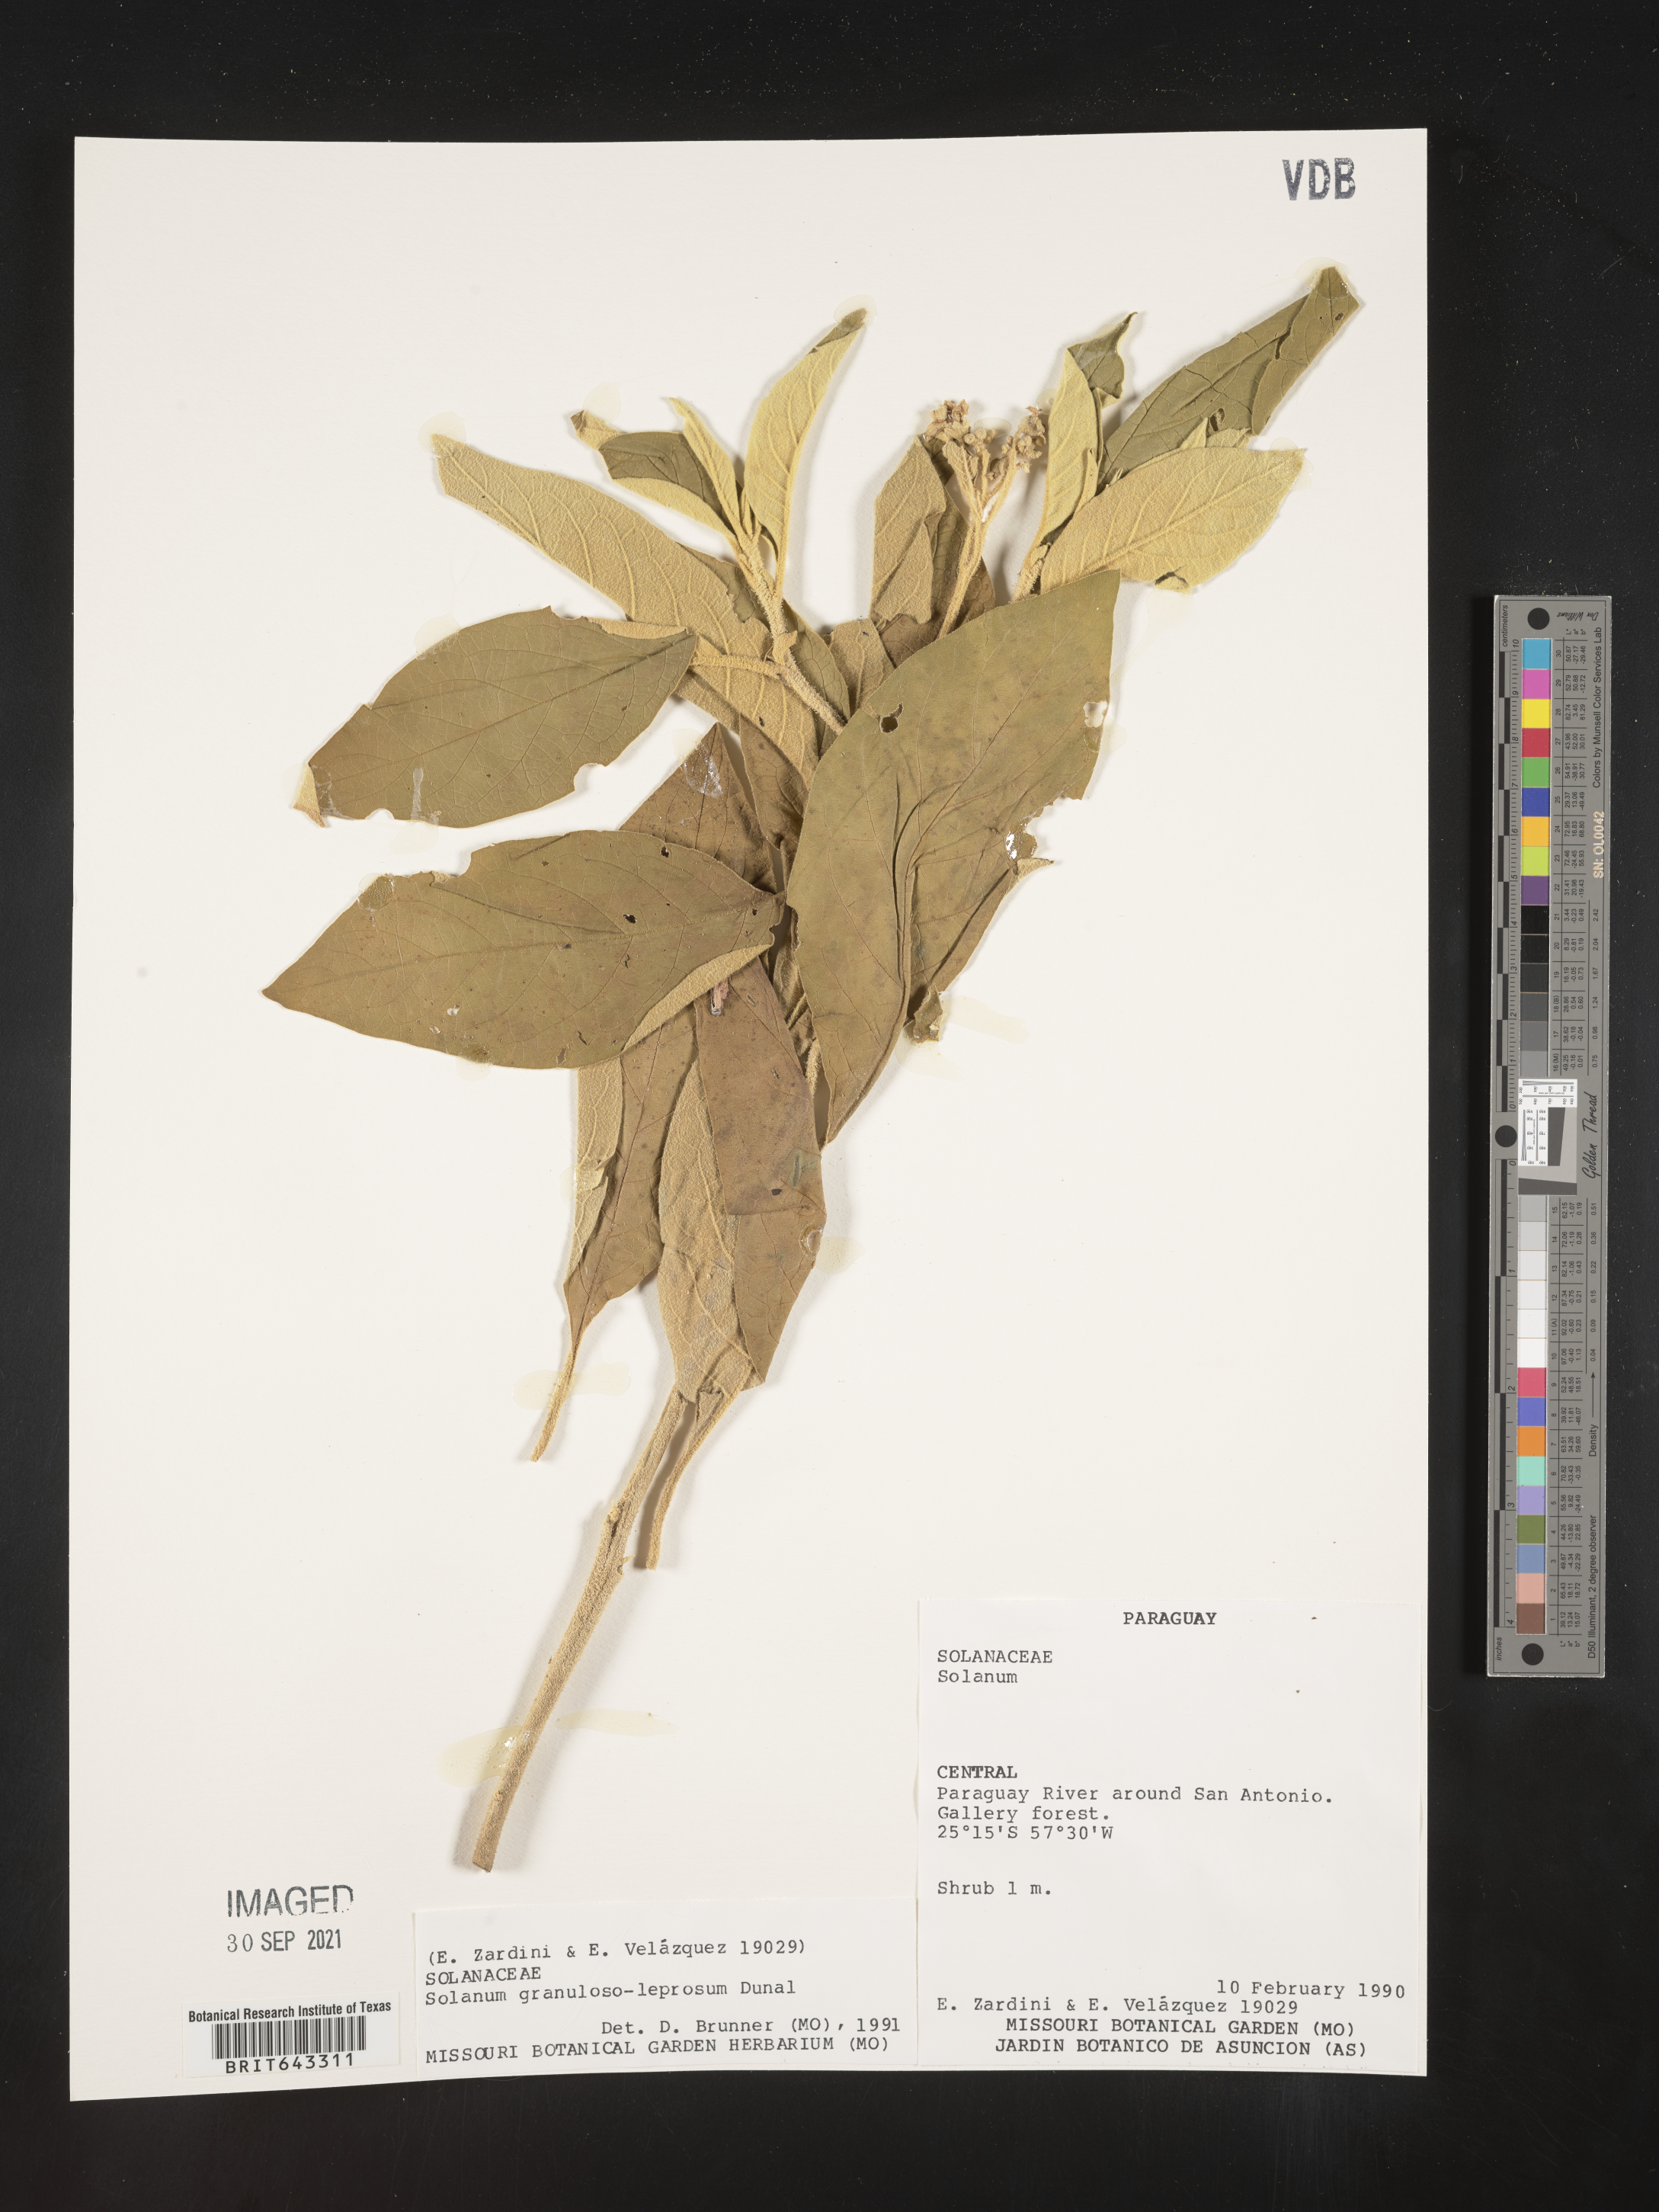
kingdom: Plantae
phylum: Tracheophyta
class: Magnoliopsida
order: Solanales
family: Solanaceae
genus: Solanum
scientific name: Solanum
